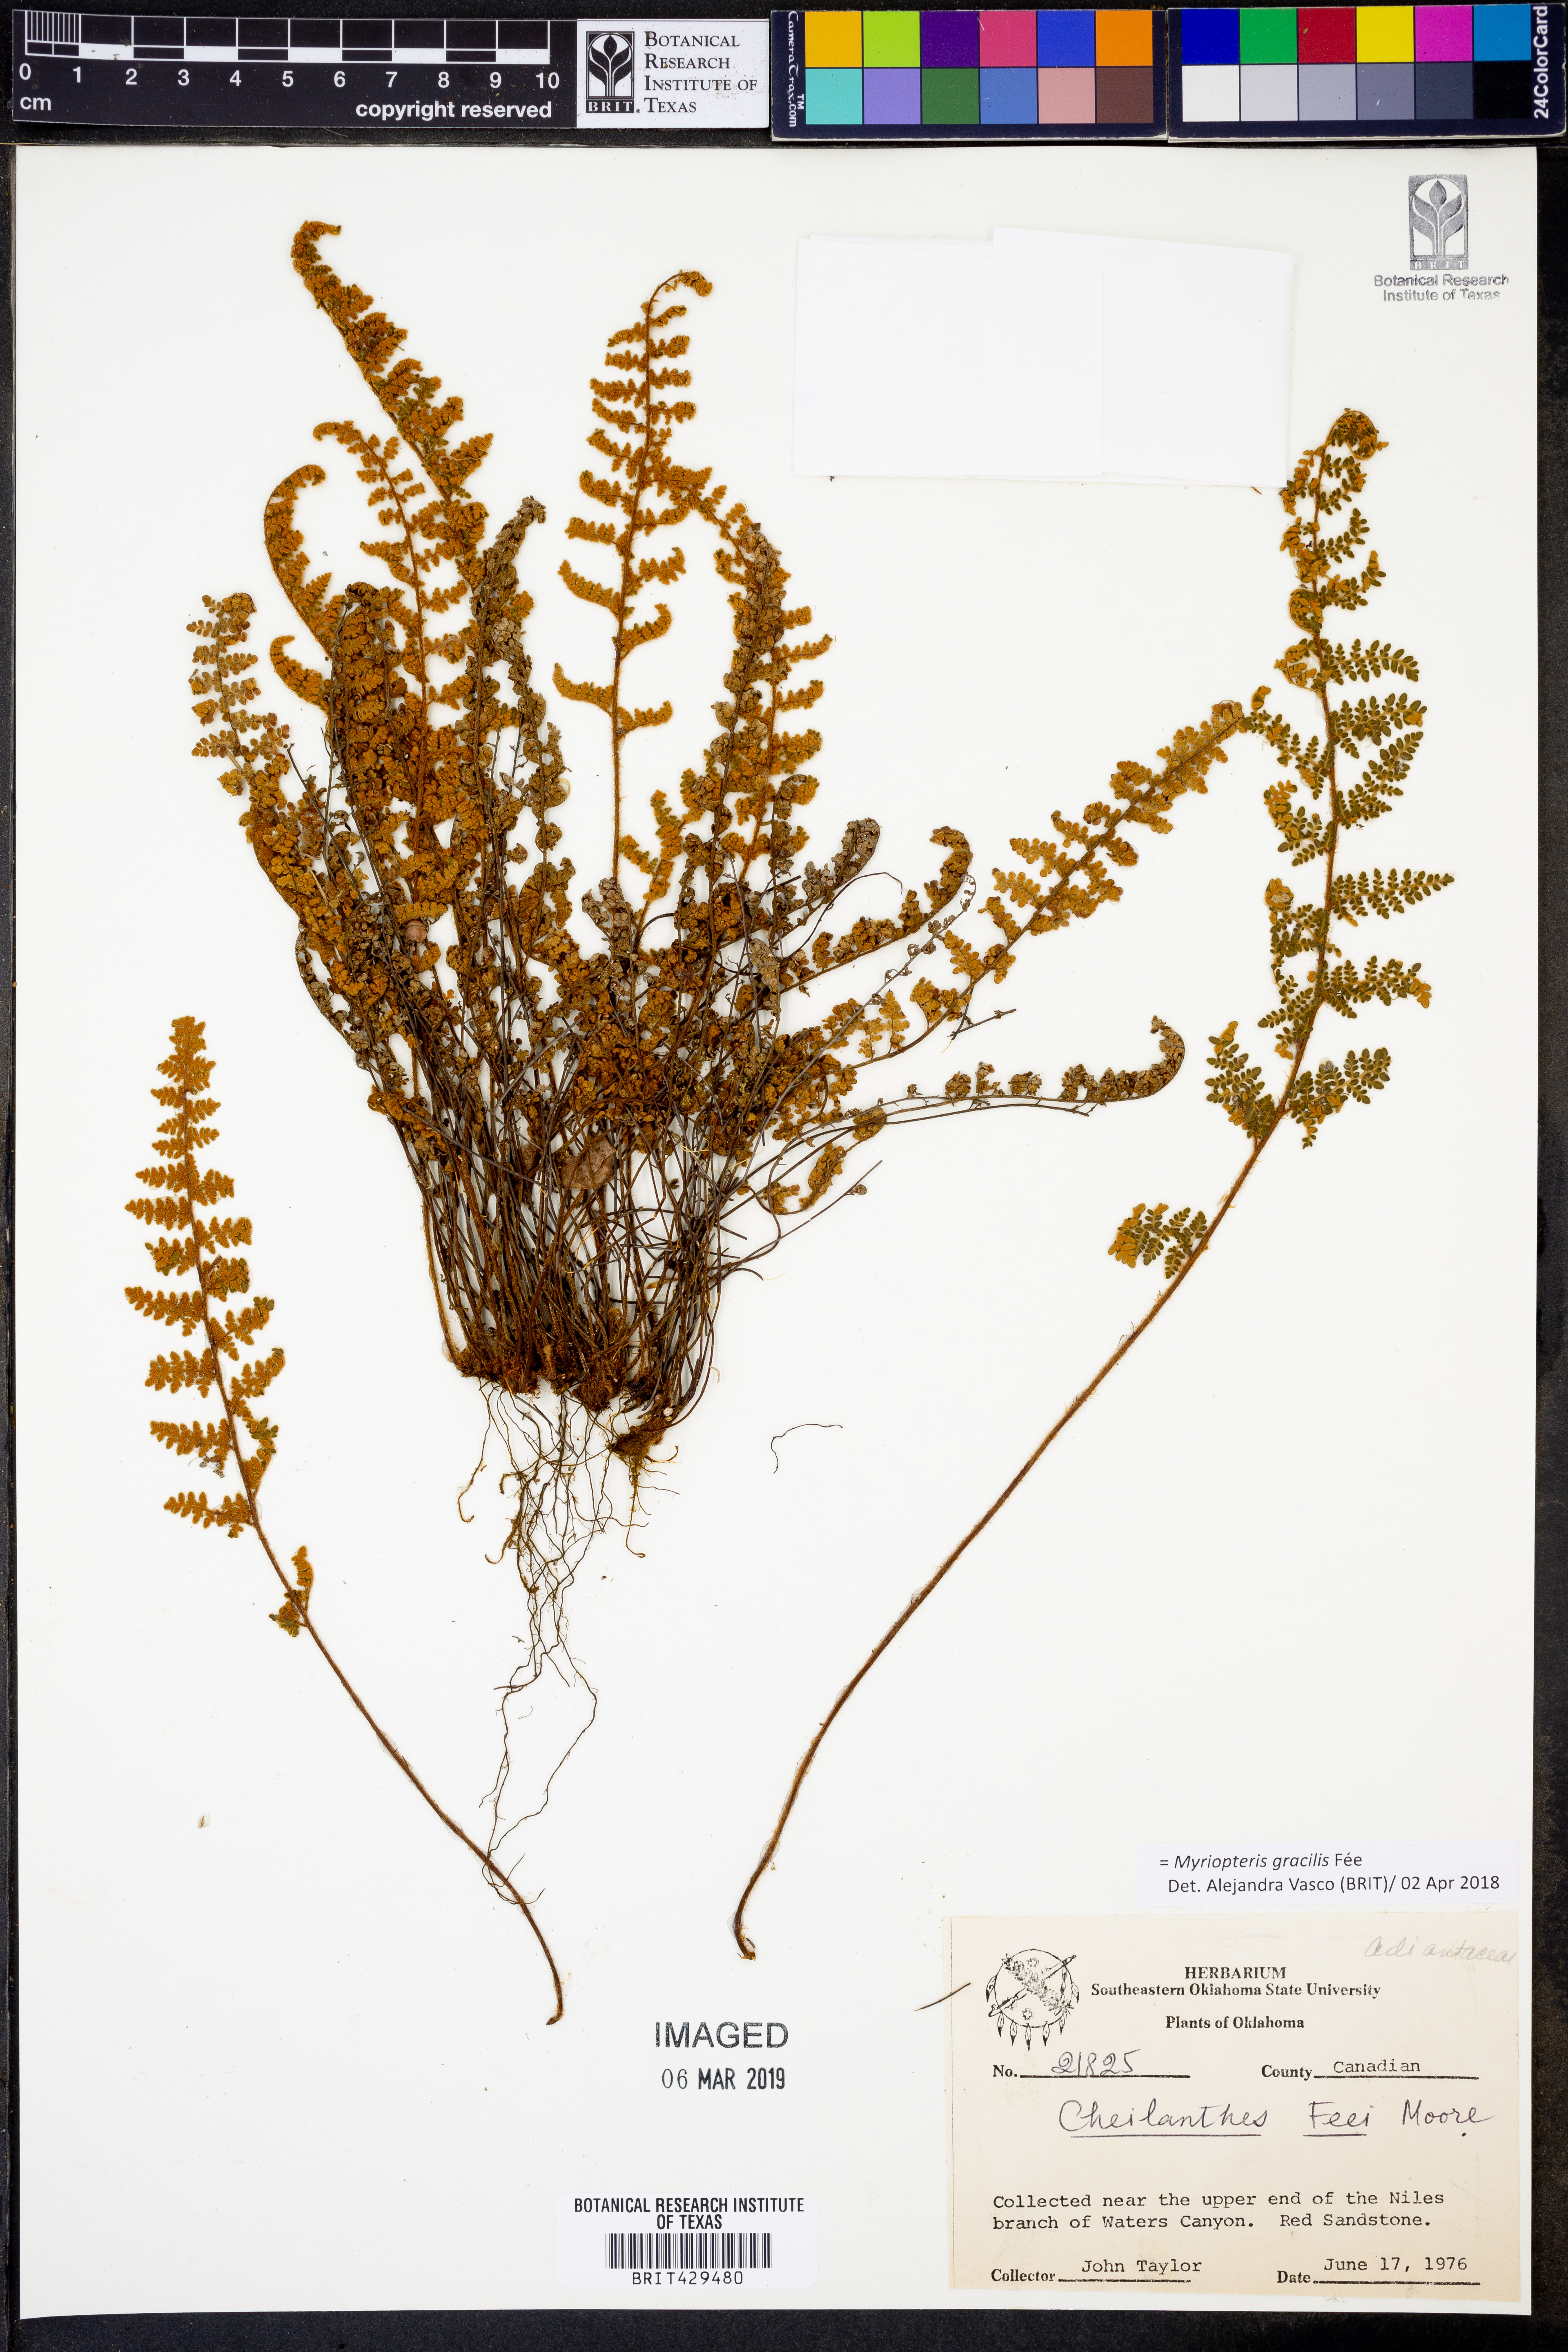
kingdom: Plantae
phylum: Tracheophyta
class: Polypodiopsida
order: Polypodiales
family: Pteridaceae
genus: Myriopteris
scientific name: Myriopteris gracilis
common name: Fee's lip fern
